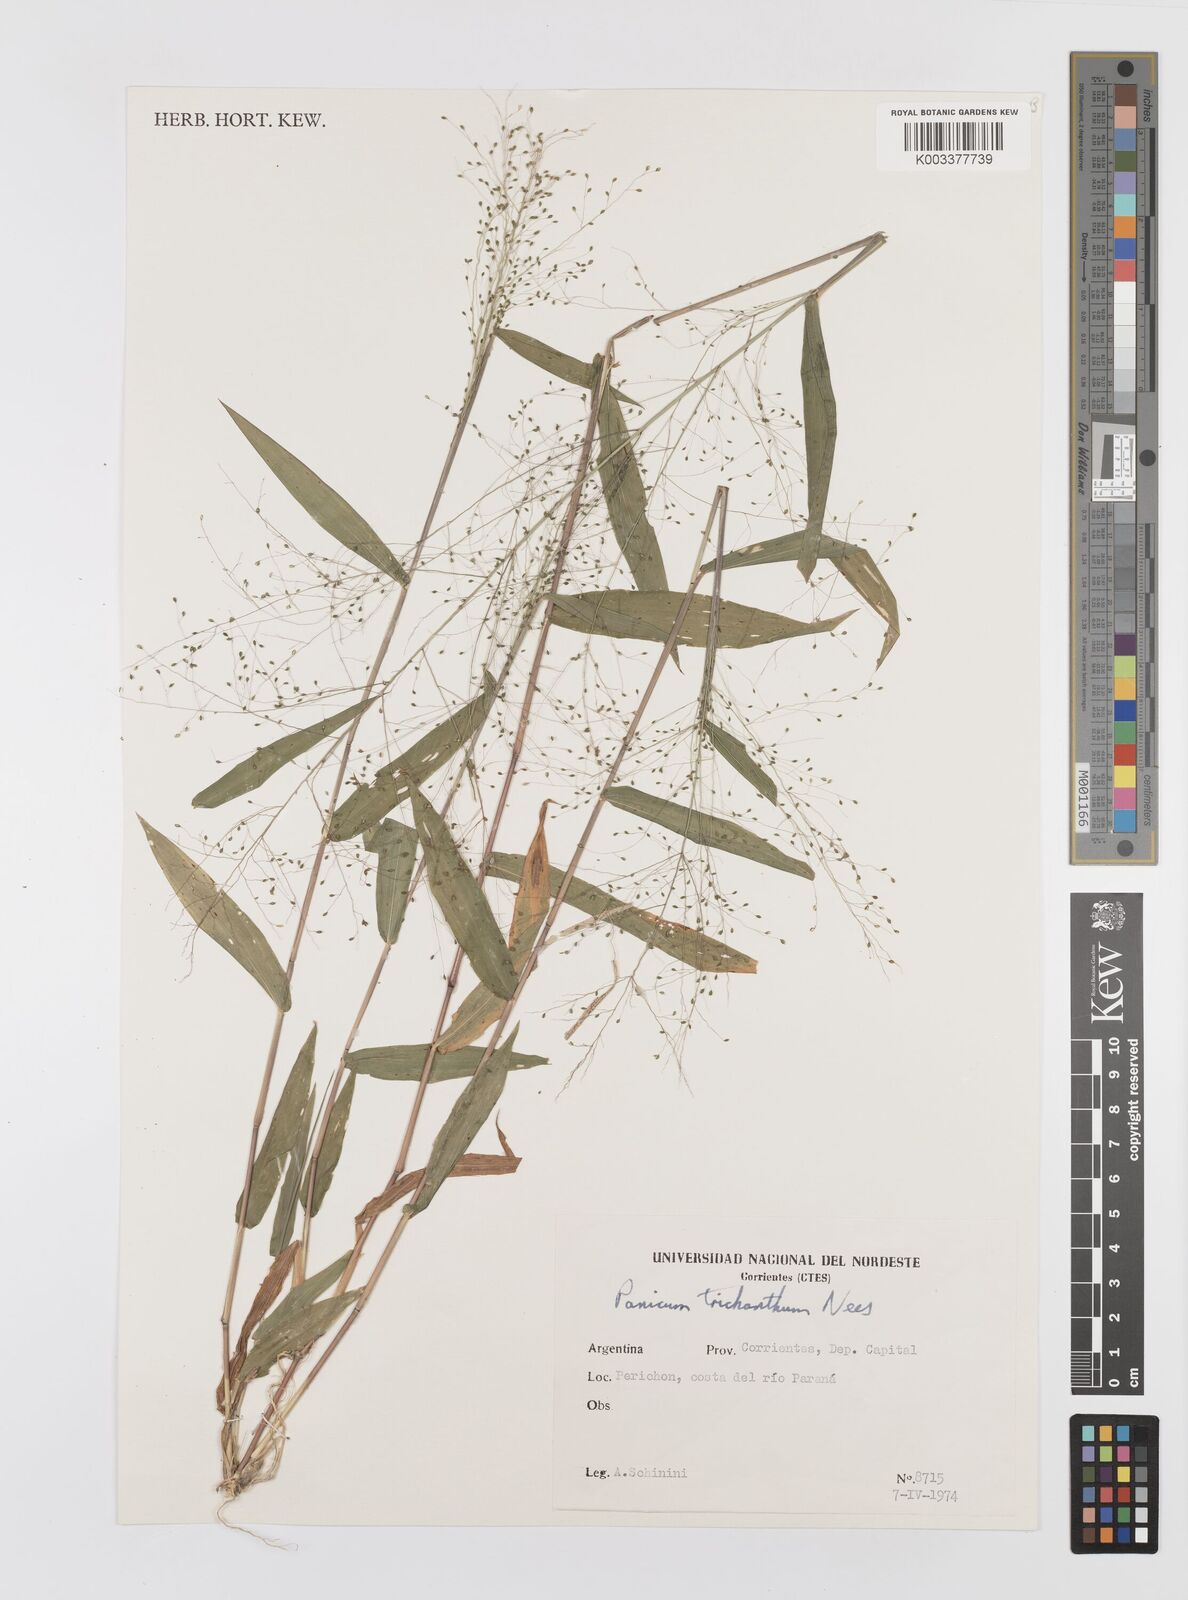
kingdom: Plantae
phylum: Tracheophyta
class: Liliopsida
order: Poales
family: Poaceae
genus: Panicum
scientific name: Panicum trichanthum
